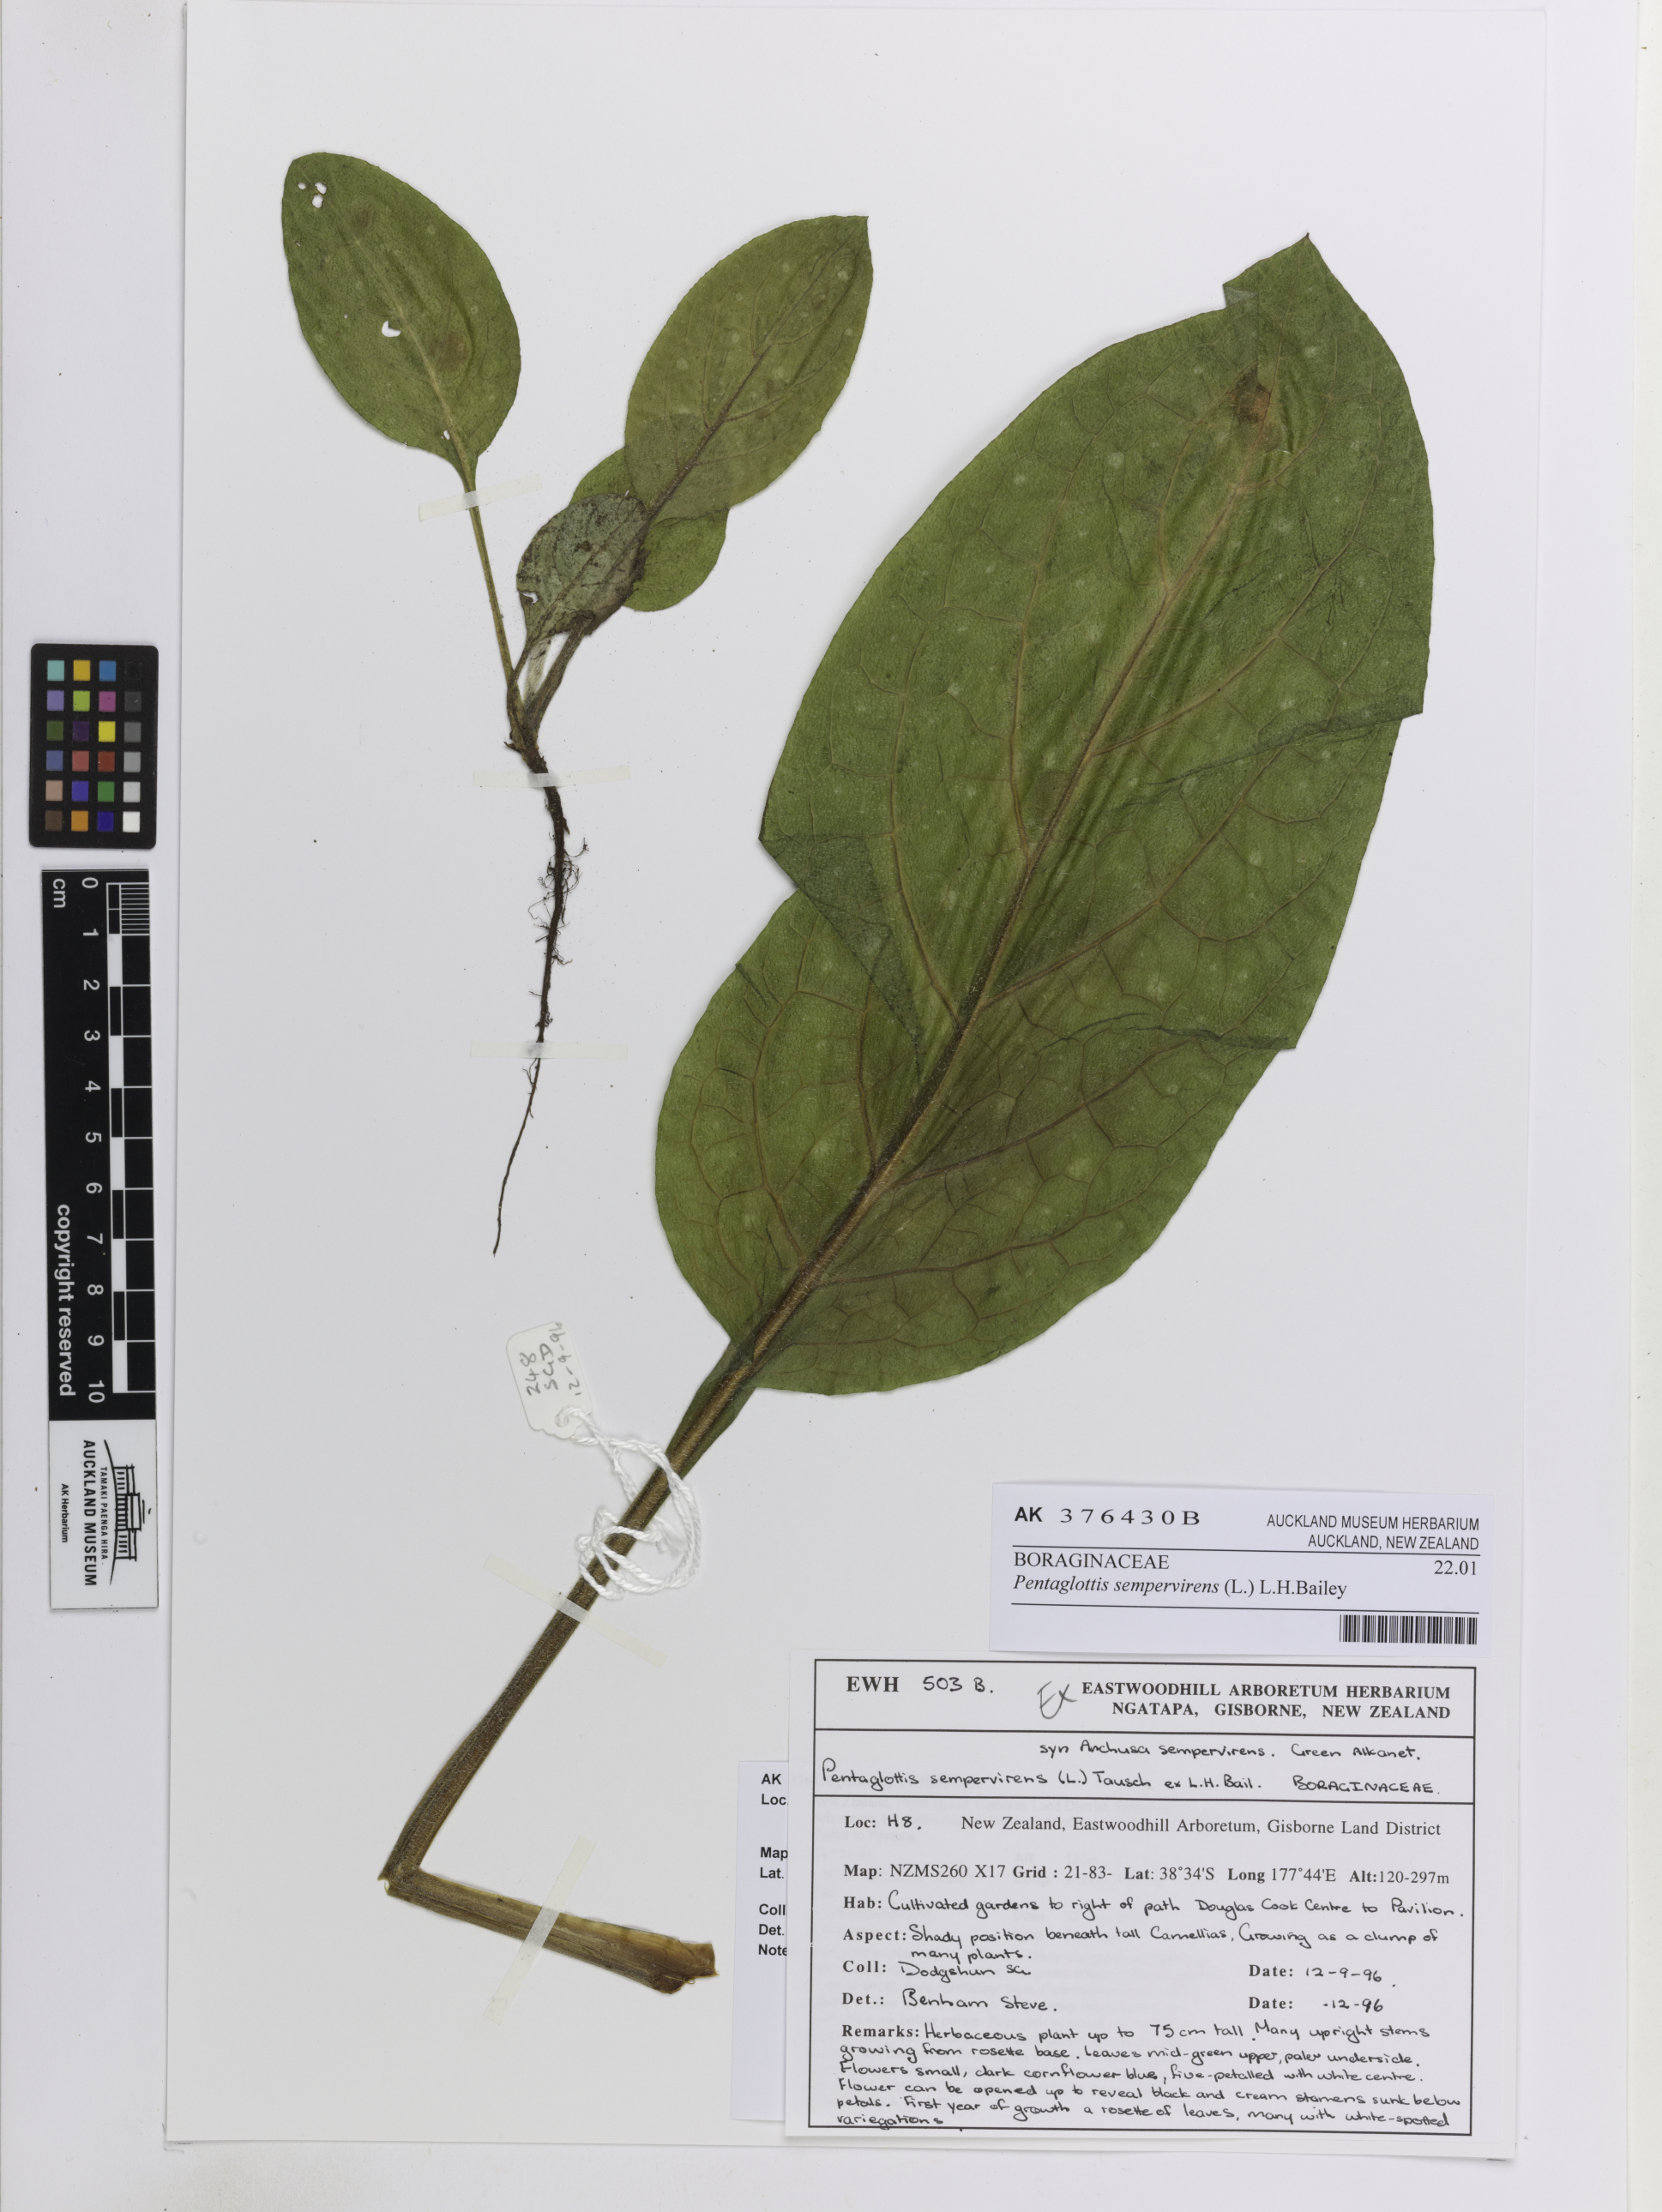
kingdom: Plantae
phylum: Tracheophyta
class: Magnoliopsida
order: Boraginales
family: Boraginaceae
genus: Pentaglottis
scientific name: Pentaglottis sempervirens
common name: Green alkanet
